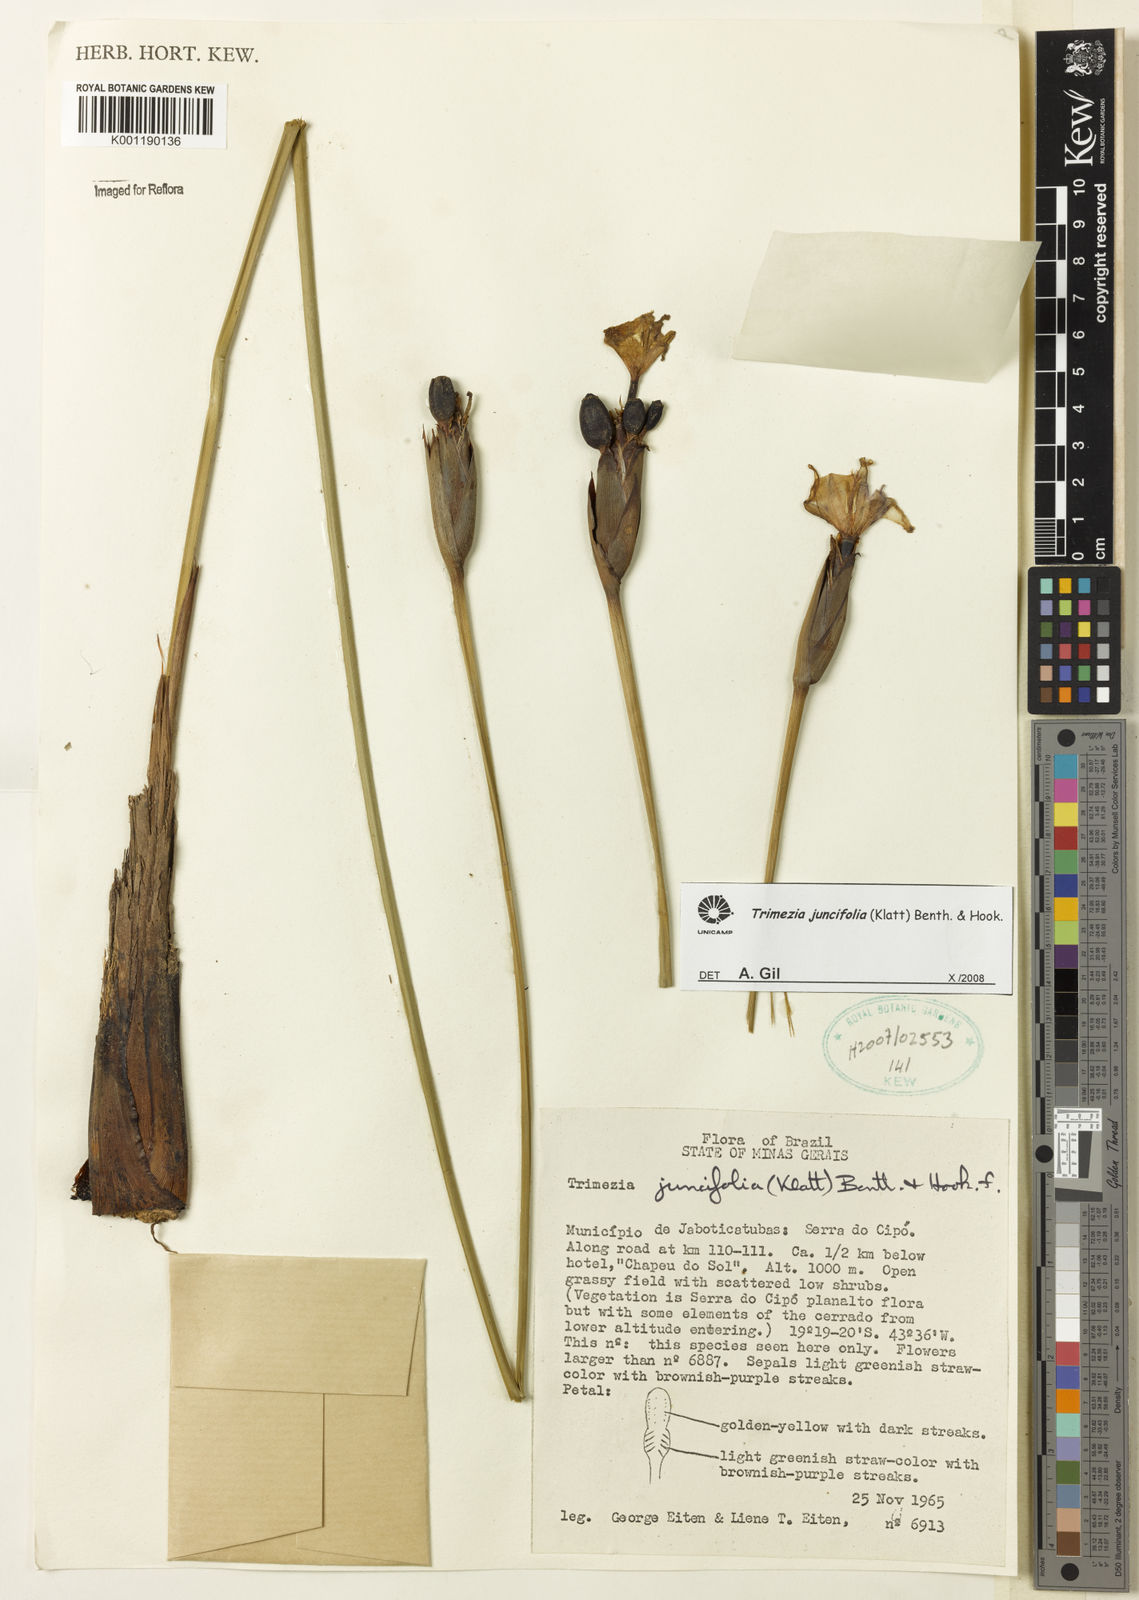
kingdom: Plantae
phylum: Tracheophyta
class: Liliopsida
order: Asparagales
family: Iridaceae
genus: Trimezia
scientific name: Trimezia juncifolia
